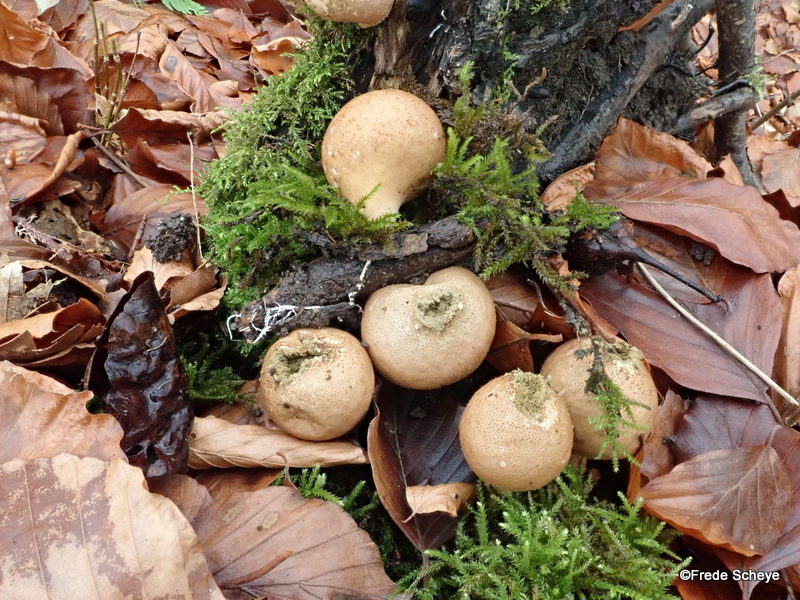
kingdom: Fungi
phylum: Basidiomycota
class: Agaricomycetes
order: Agaricales
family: Lycoperdaceae
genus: Apioperdon
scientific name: Apioperdon pyriforme
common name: pære-støvbold
